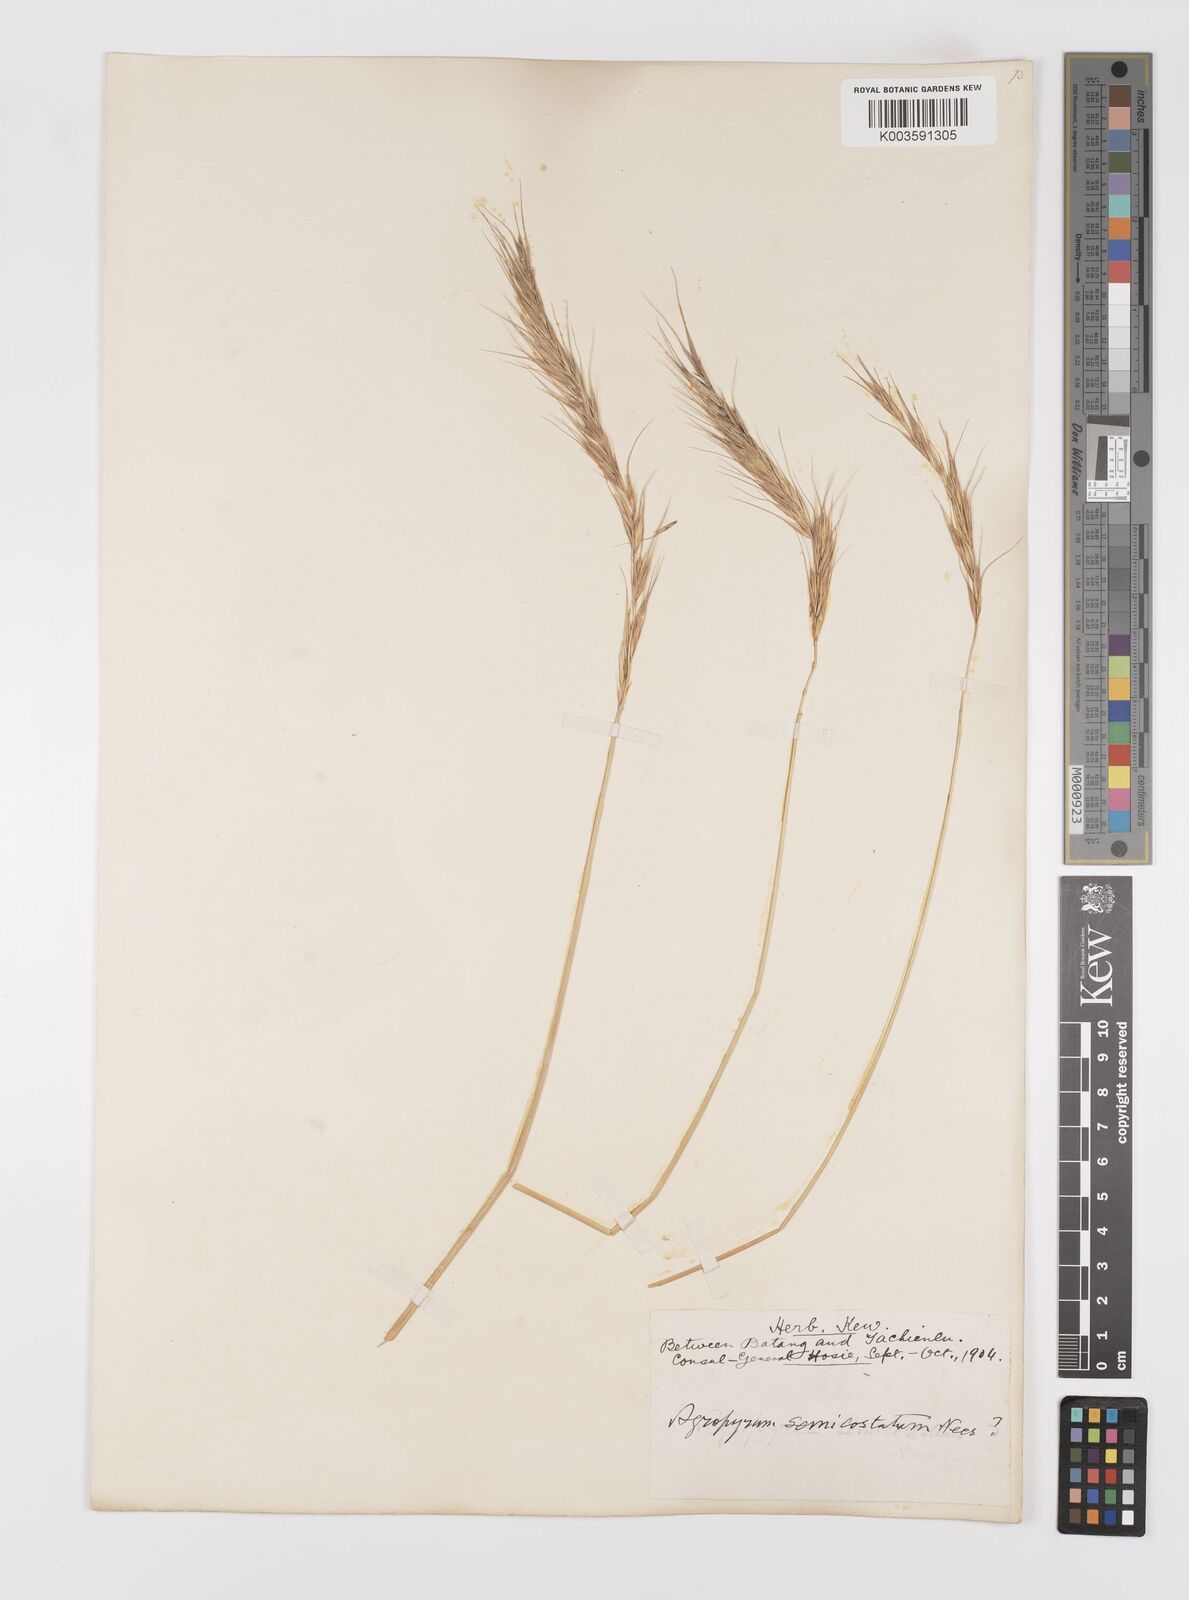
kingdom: Plantae
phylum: Tracheophyta
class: Liliopsida
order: Poales
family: Poaceae
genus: Leymus
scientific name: Leymus
